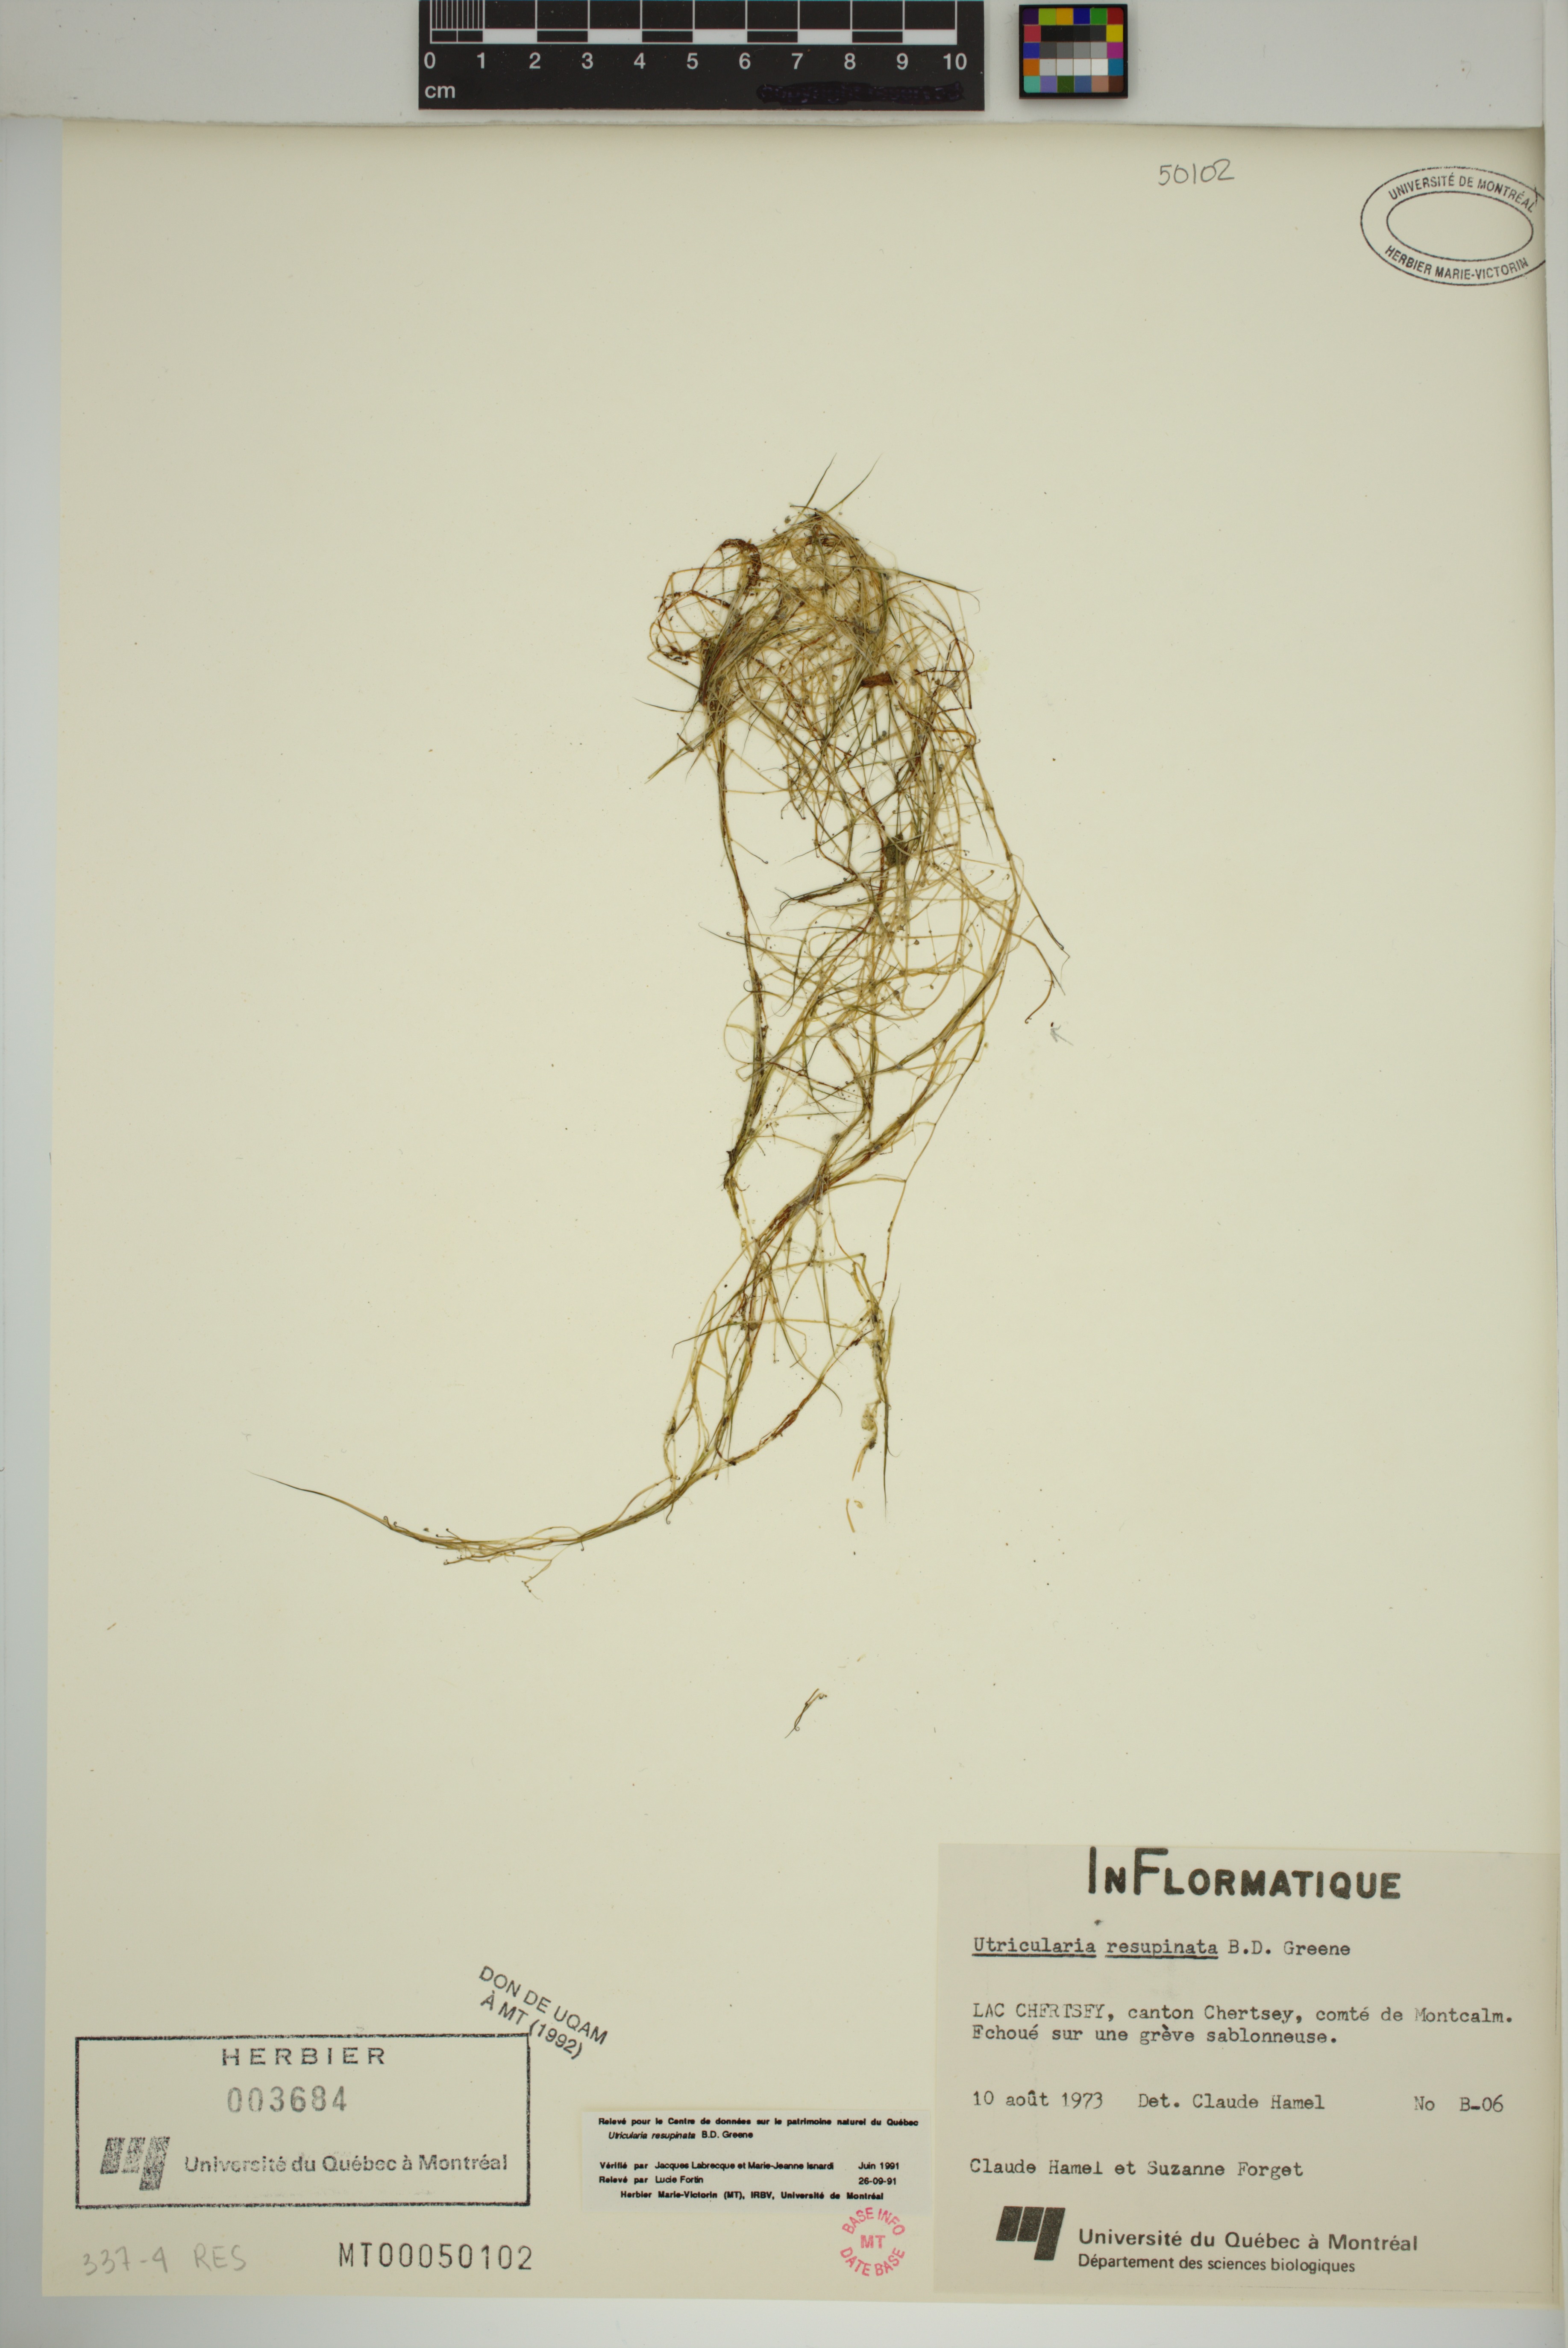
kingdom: Plantae
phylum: Tracheophyta
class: Magnoliopsida
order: Lamiales
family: Lentibulariaceae
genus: Utricularia
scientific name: Utricularia resupinata
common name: Northeastern bladderwort
